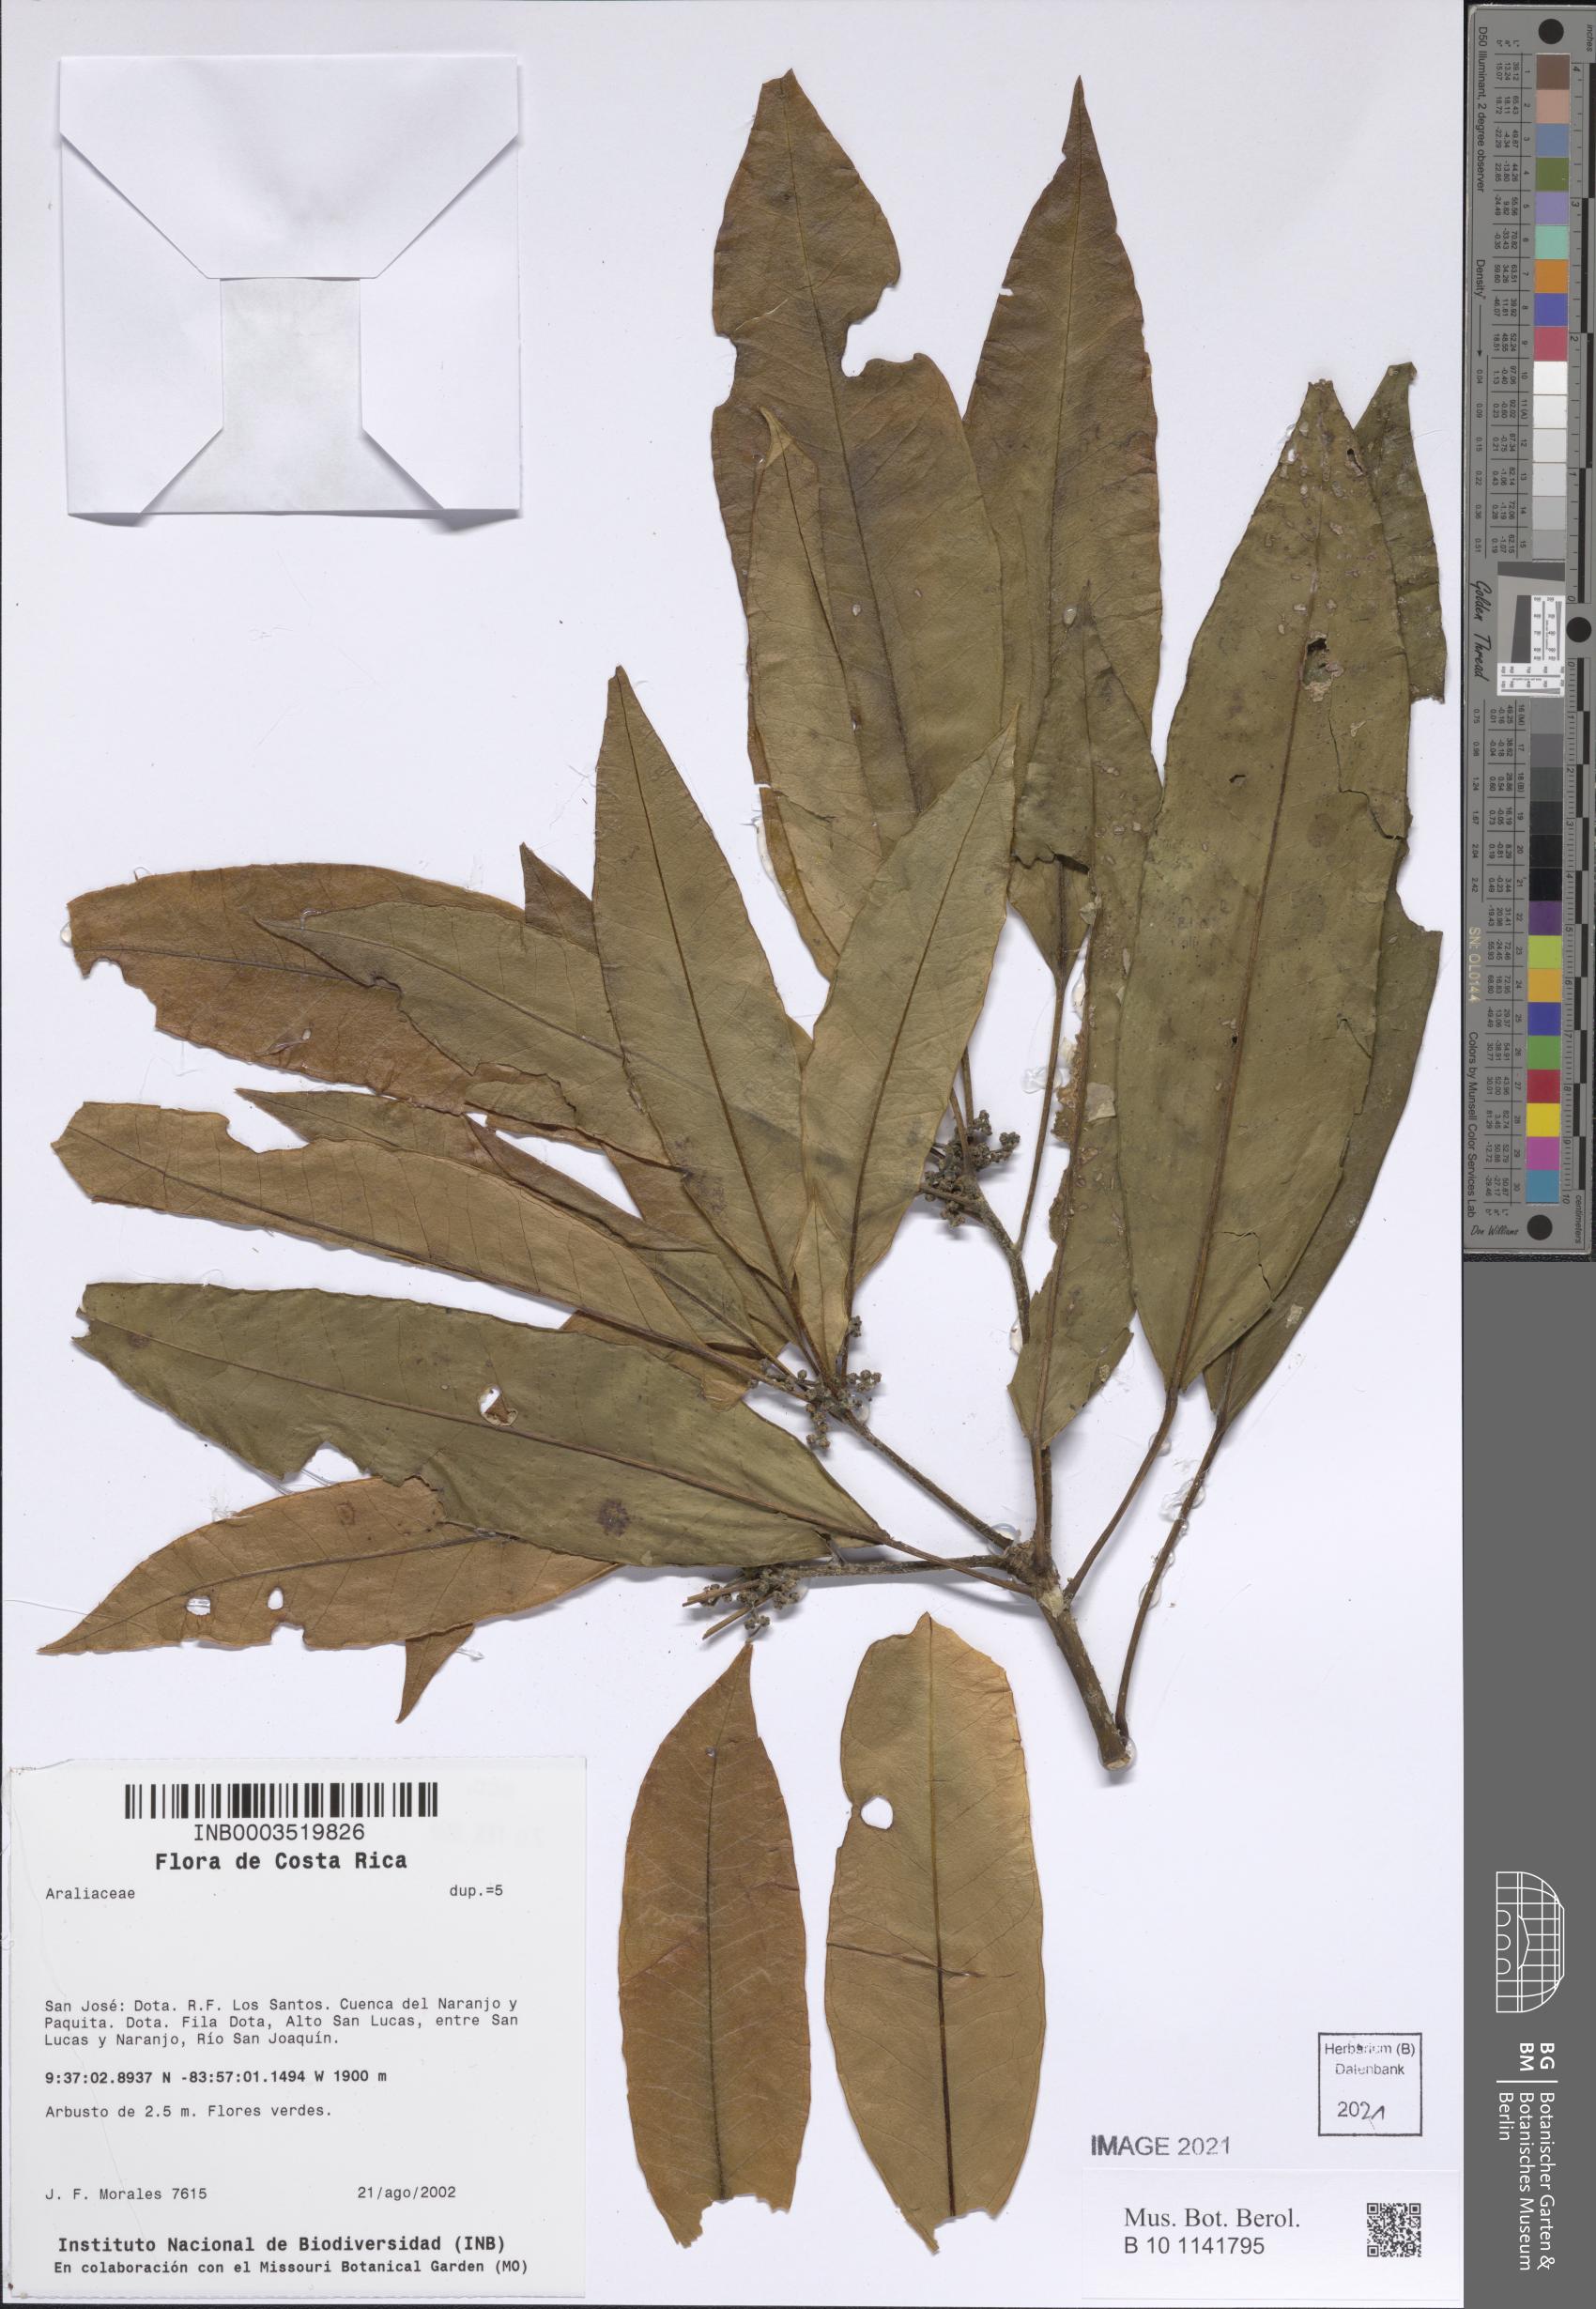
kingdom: Plantae
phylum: Tracheophyta
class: Magnoliopsida
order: Apiales
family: Araliaceae
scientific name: Araliaceae
